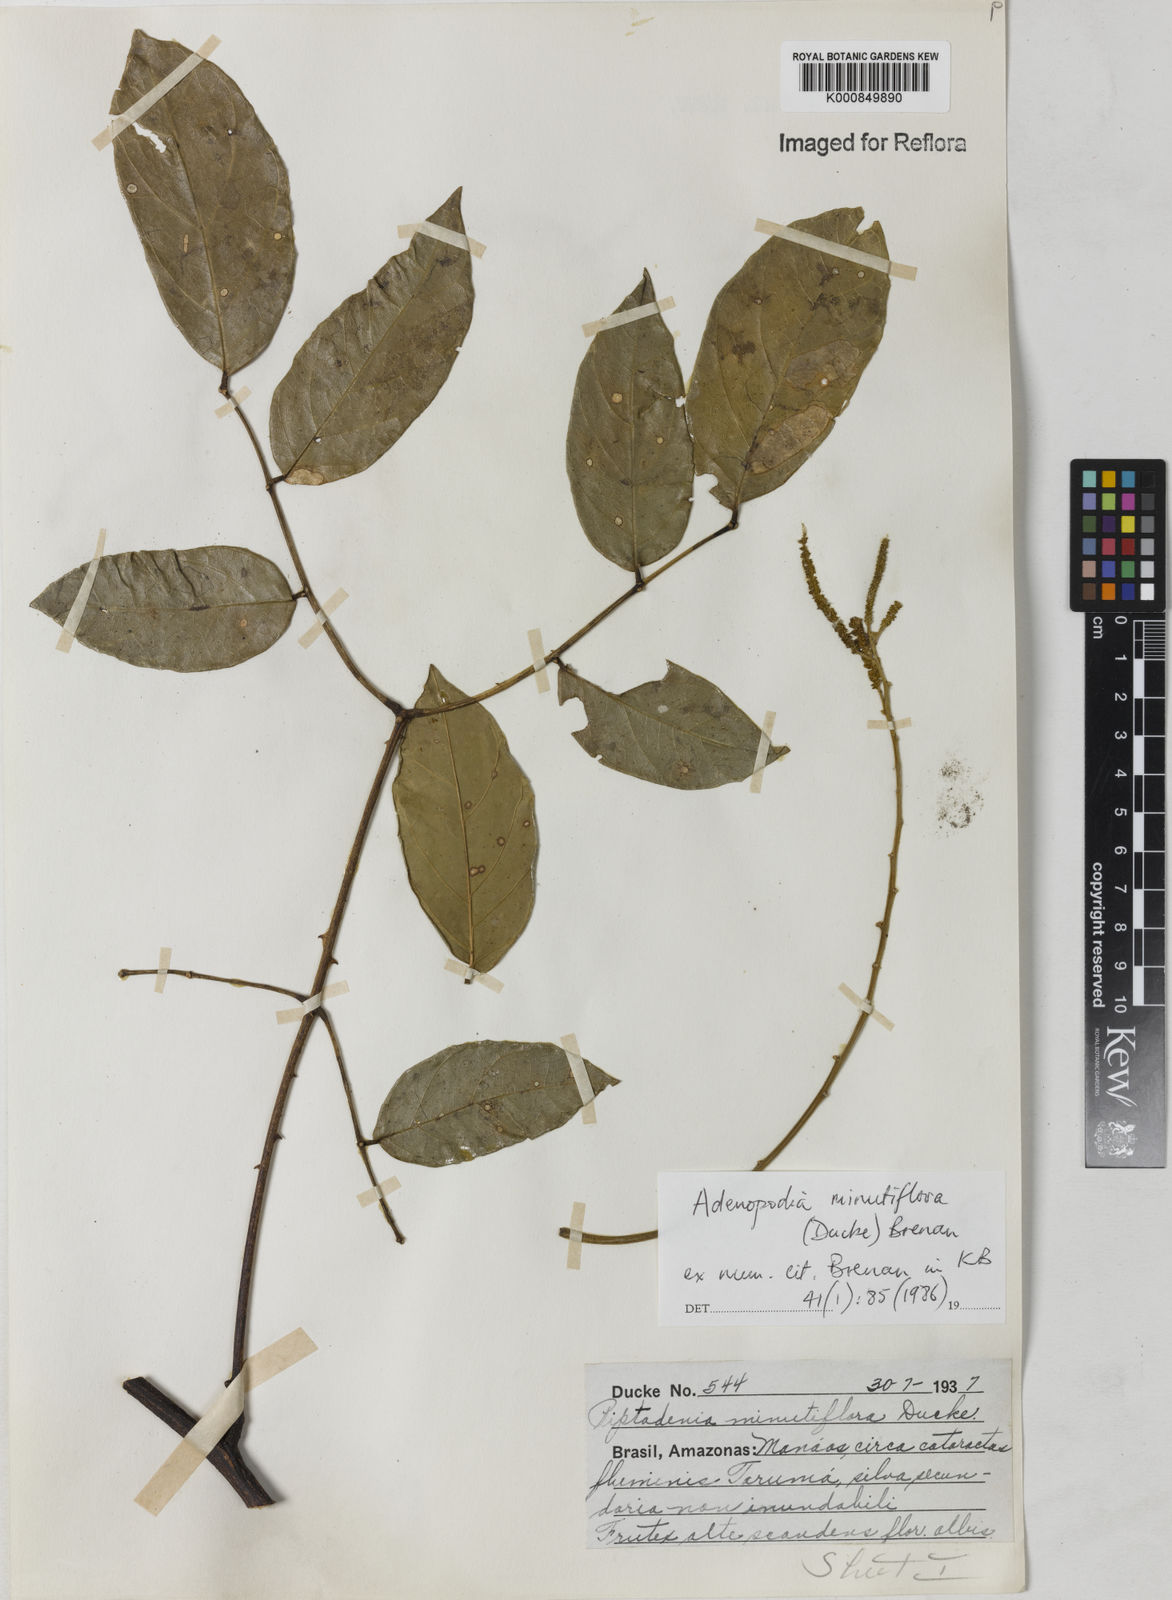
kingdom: Plantae
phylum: Tracheophyta
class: Magnoliopsida
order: Fabales
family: Fabaceae
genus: Piptadenia
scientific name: Piptadenia minutiflora
